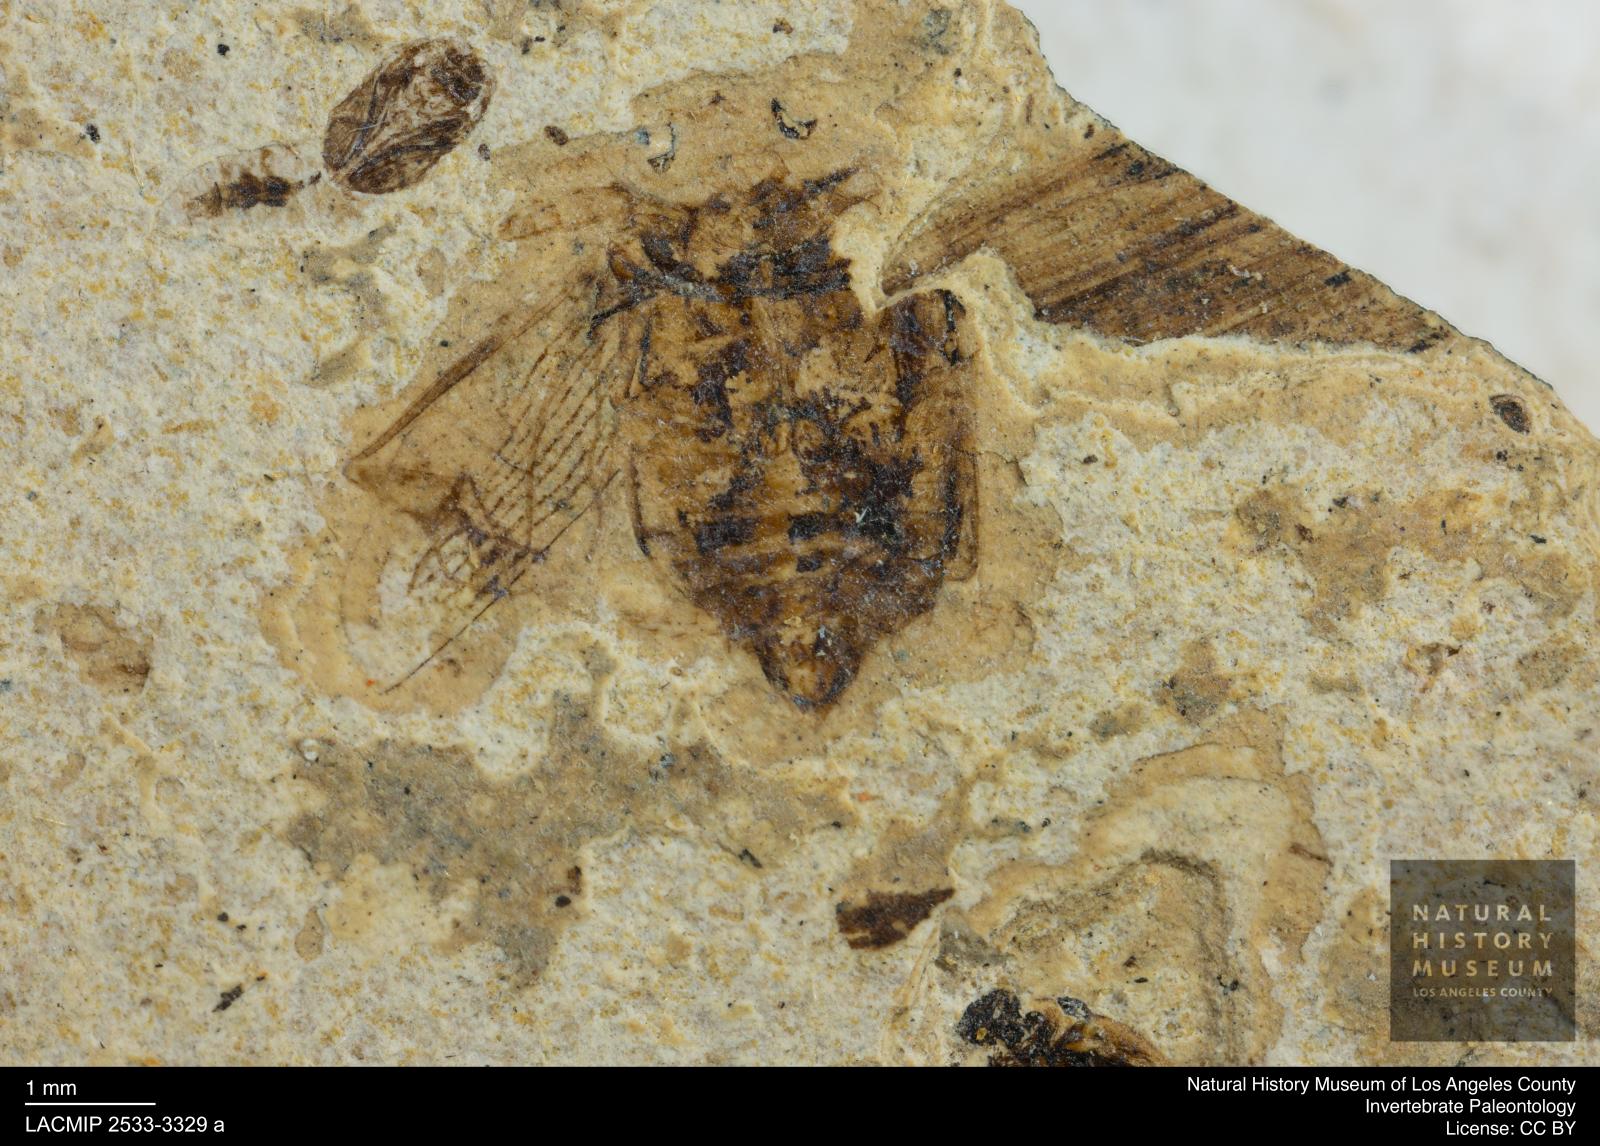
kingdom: Animalia
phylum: Arthropoda
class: Insecta
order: Coleoptera
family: Dytiscidae
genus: Laccophilus
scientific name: Laccophilus Palaeogyrinus strigatus
